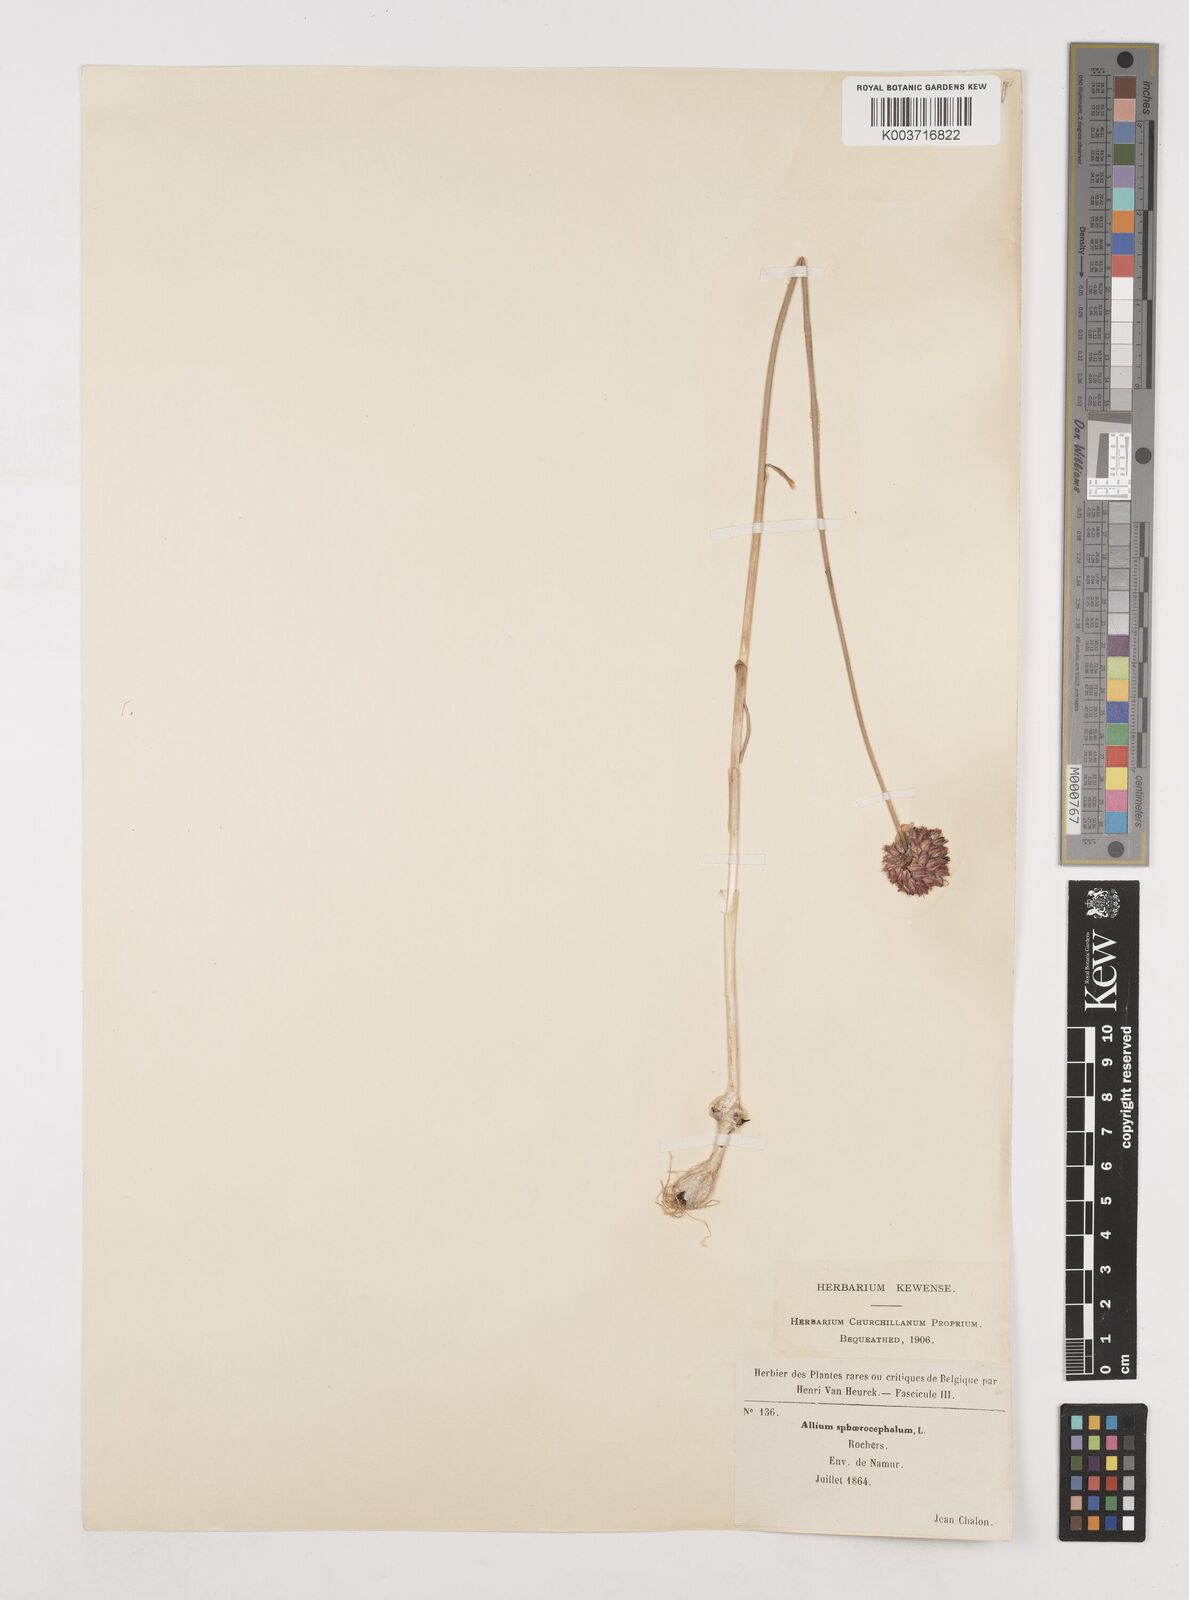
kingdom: Plantae
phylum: Tracheophyta
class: Liliopsida
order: Asparagales
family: Amaryllidaceae
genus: Allium
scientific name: Allium sphaerocephalon
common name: Round-headed leek
